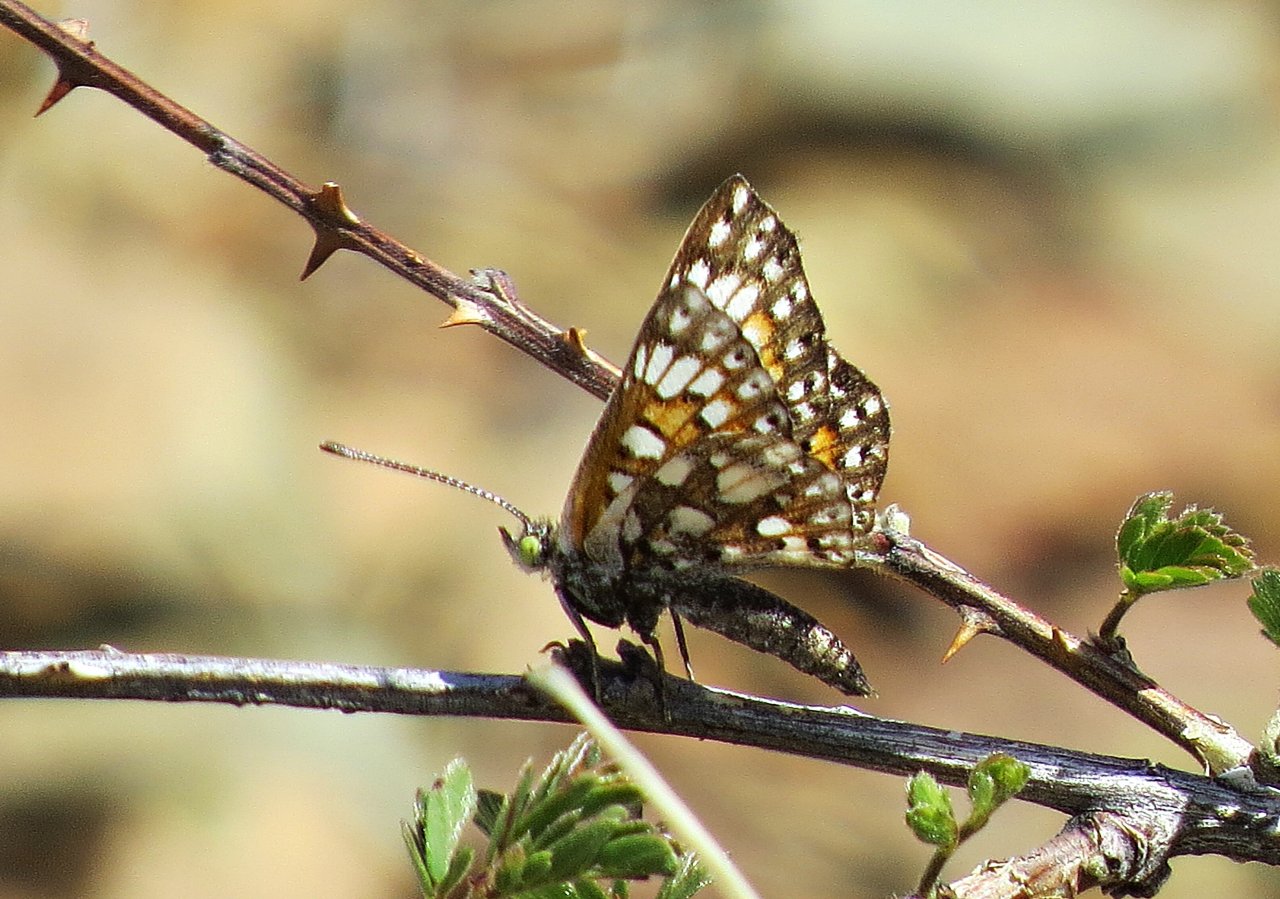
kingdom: Animalia
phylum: Arthropoda
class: Insecta
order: Lepidoptera
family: Riodinidae
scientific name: Riodinidae
